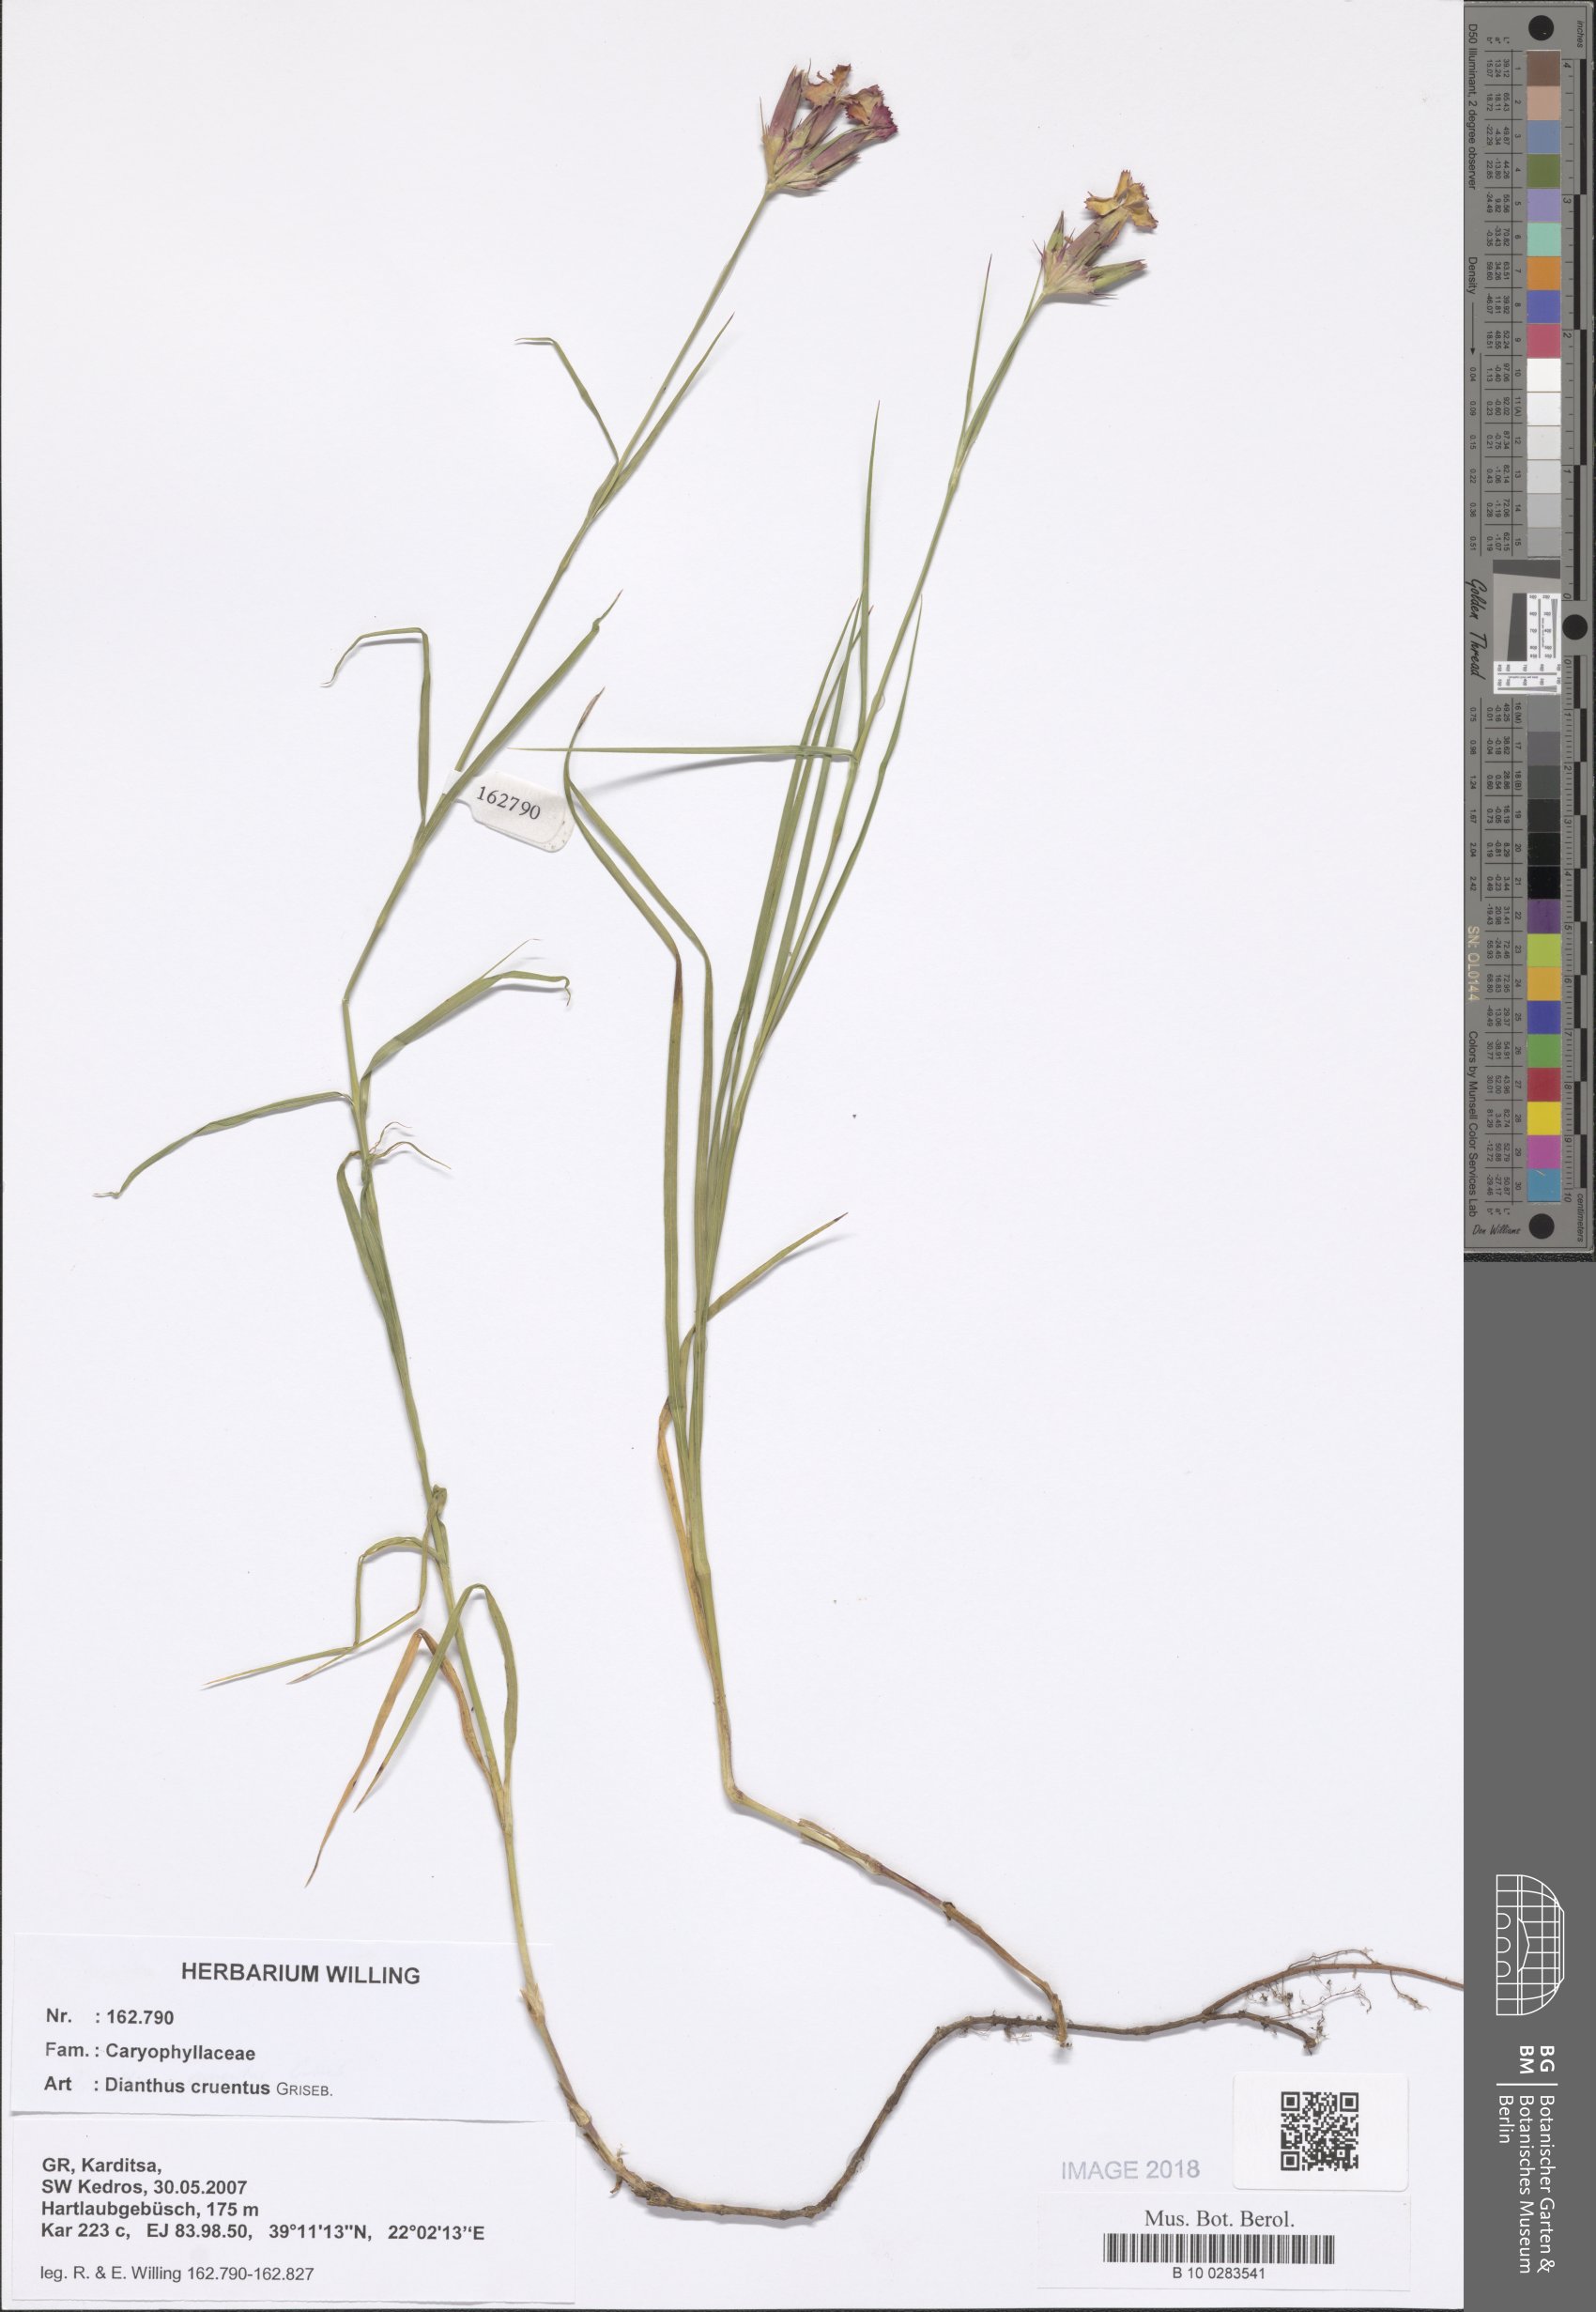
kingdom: Plantae
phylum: Tracheophyta
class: Magnoliopsida
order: Caryophyllales
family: Caryophyllaceae
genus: Dianthus
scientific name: Dianthus cruentus
